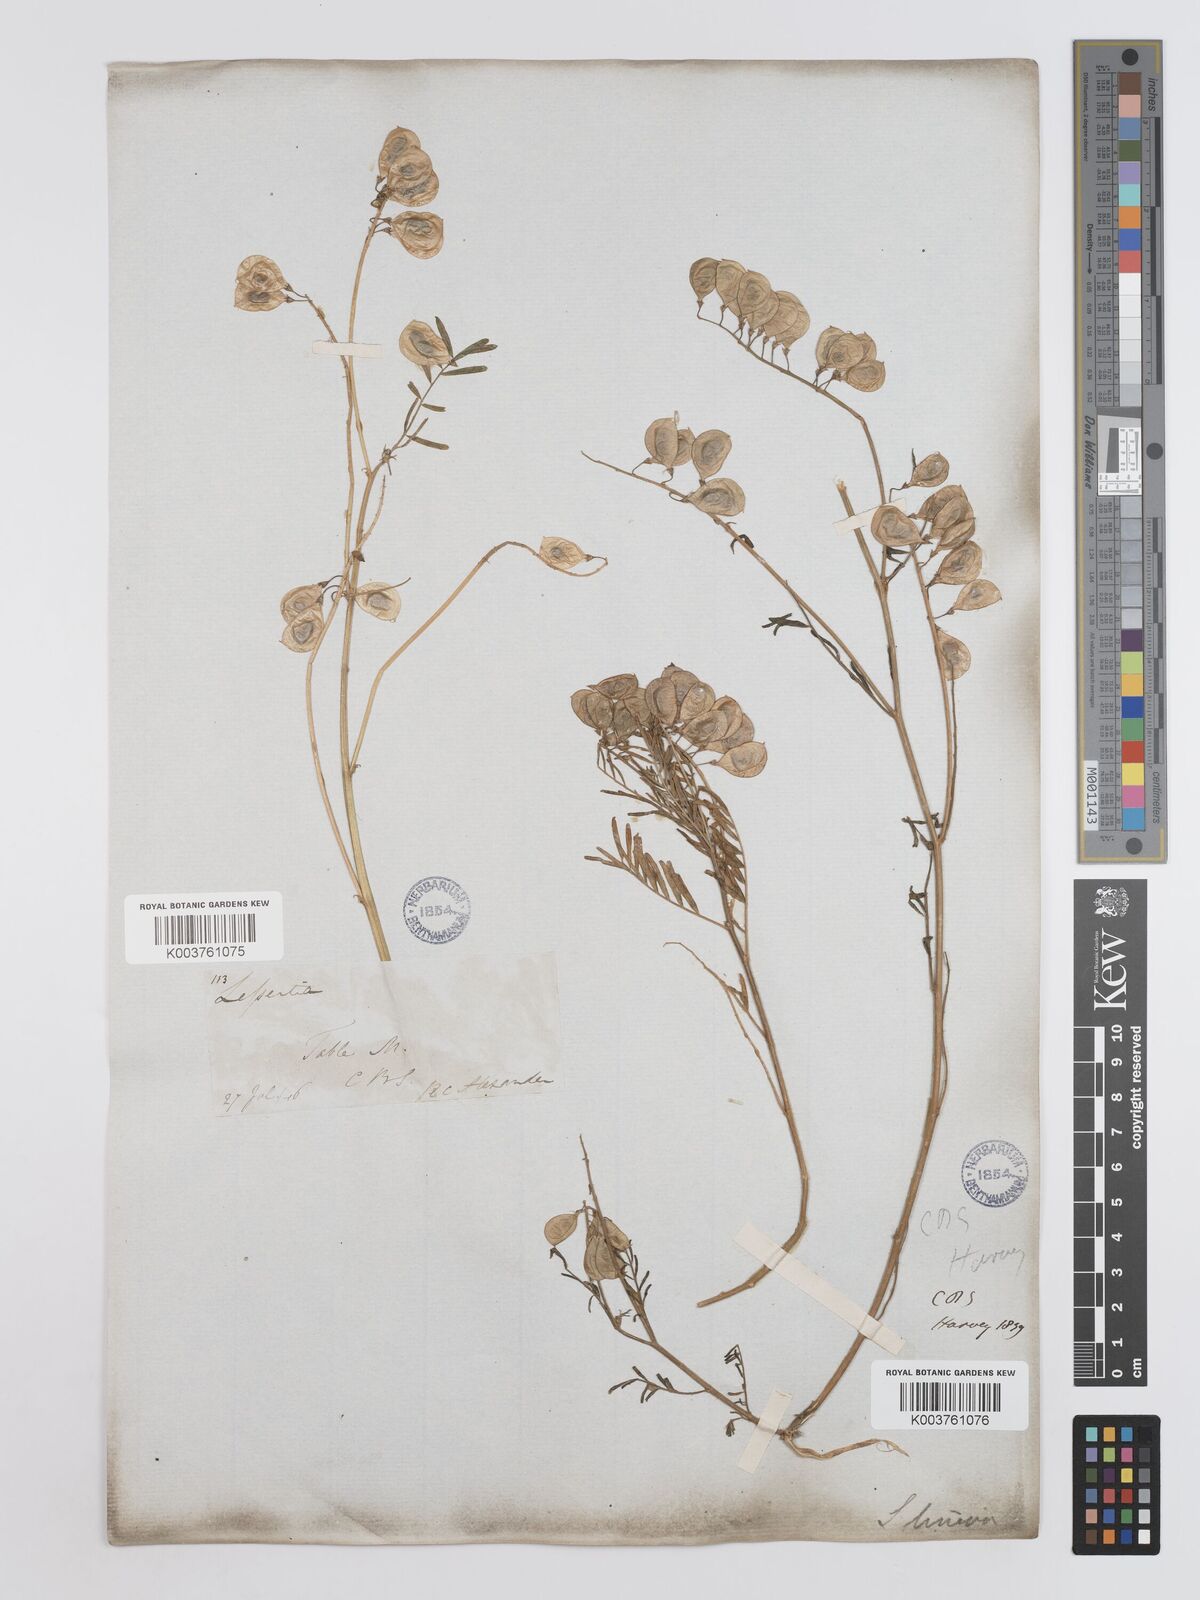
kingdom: Plantae
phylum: Tracheophyta
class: Magnoliopsida
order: Fabales
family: Fabaceae
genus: Lessertia
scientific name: Lessertia herbacea
